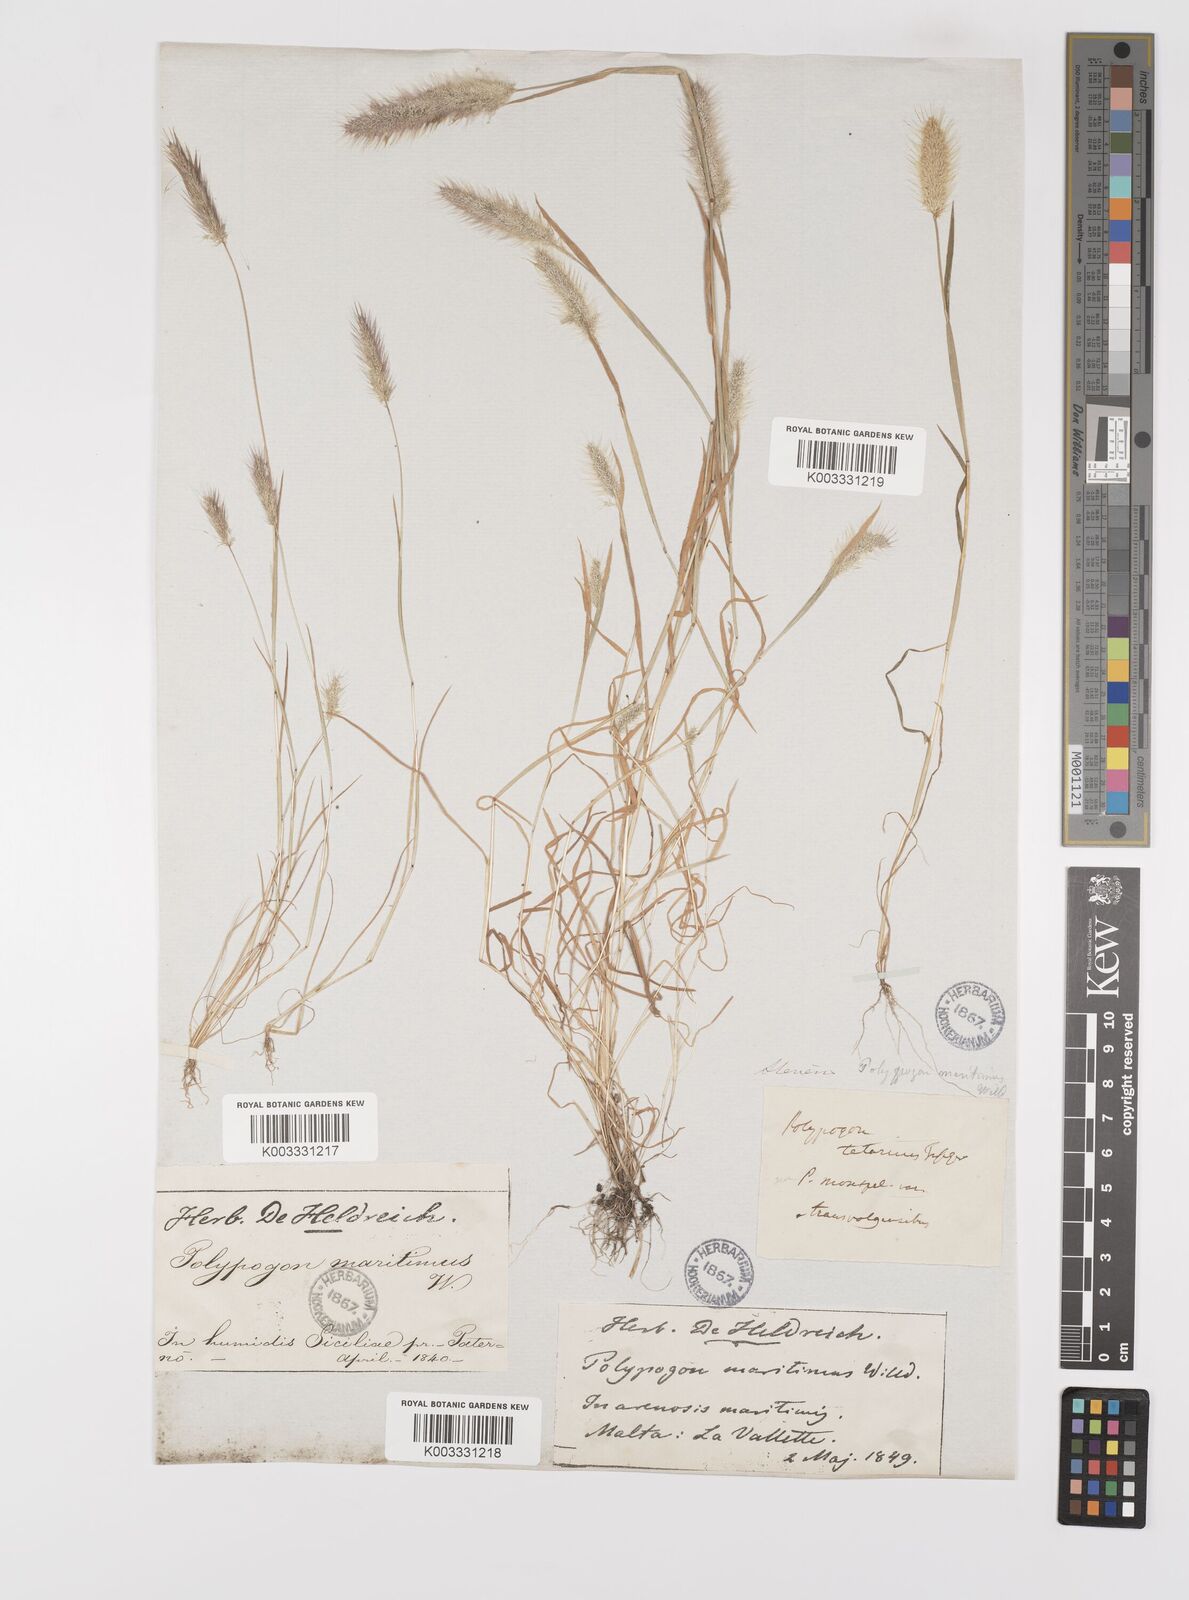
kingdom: Plantae
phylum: Tracheophyta
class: Liliopsida
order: Poales
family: Poaceae
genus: Polypogon
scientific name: Polypogon maritimus
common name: Mediterranean rabbitsfoot grass
